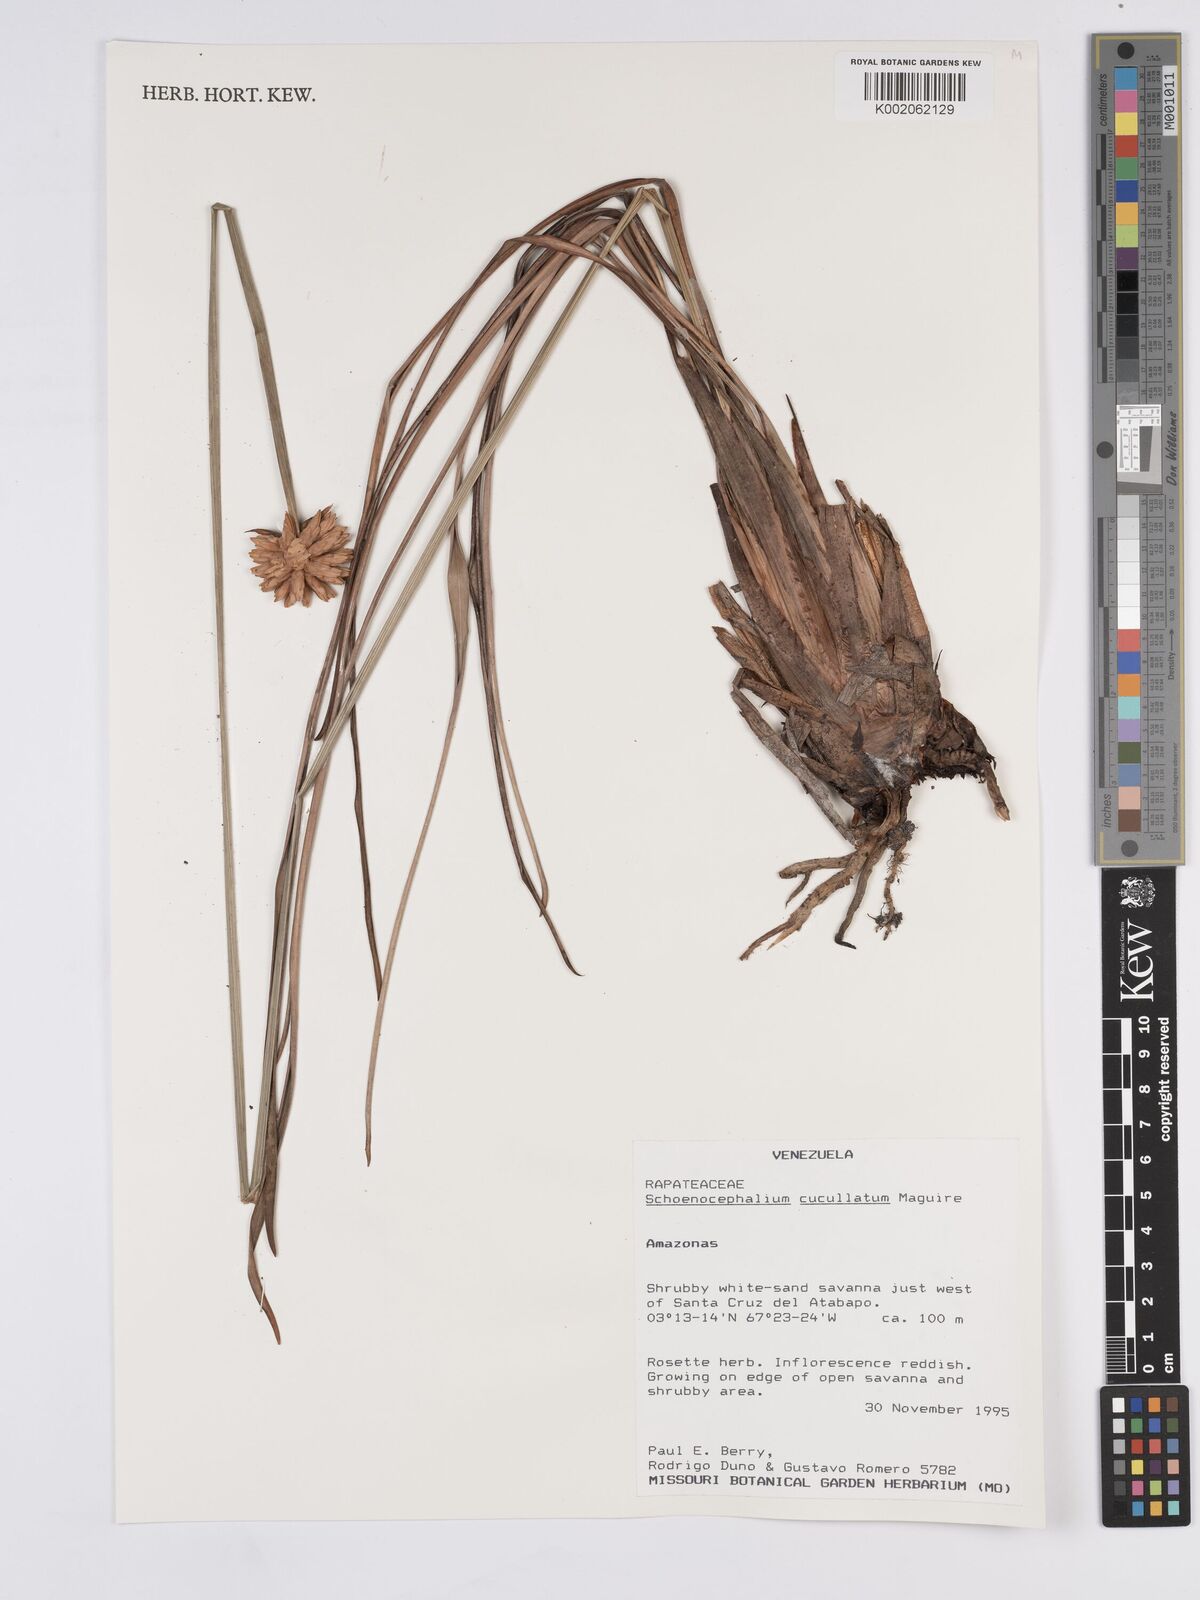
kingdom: Plantae
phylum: Tracheophyta
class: Liliopsida
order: Poales
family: Rapateaceae
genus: Schoenocephalium
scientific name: Schoenocephalium cucullatum
